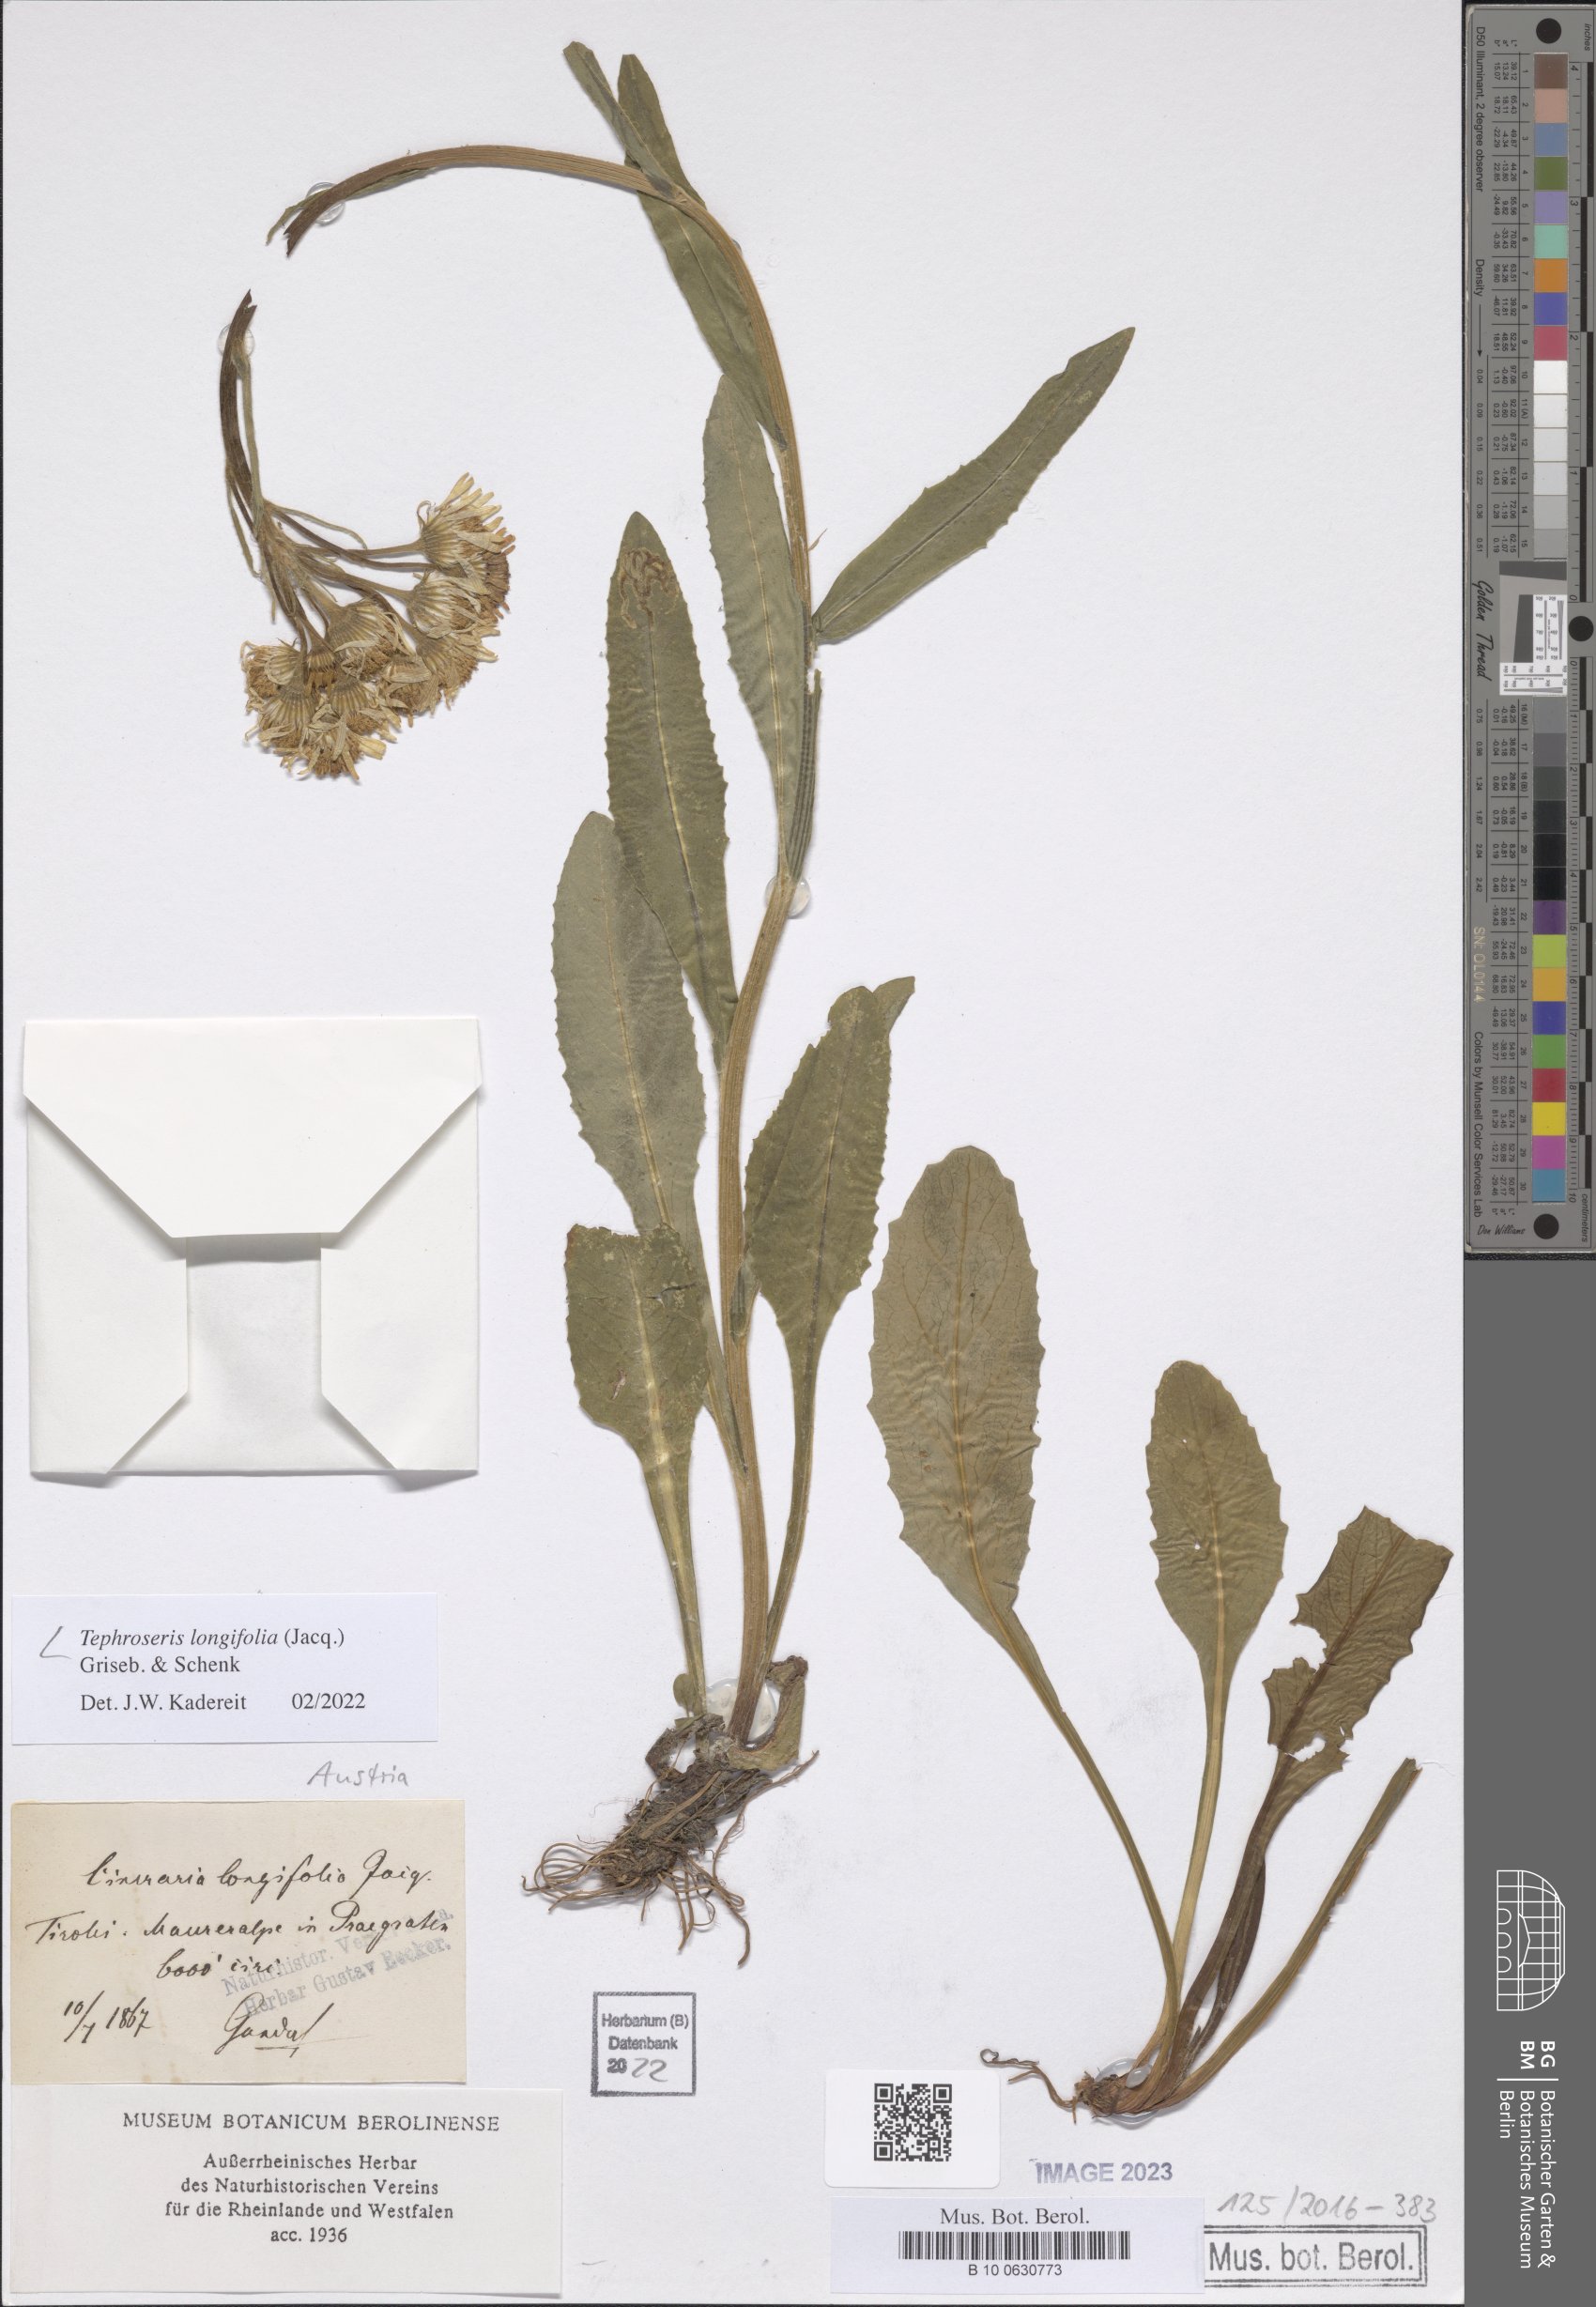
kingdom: Plantae
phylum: Tracheophyta
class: Magnoliopsida
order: Asterales
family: Asteraceae
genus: Tephroseris
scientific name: Tephroseris longifolia
